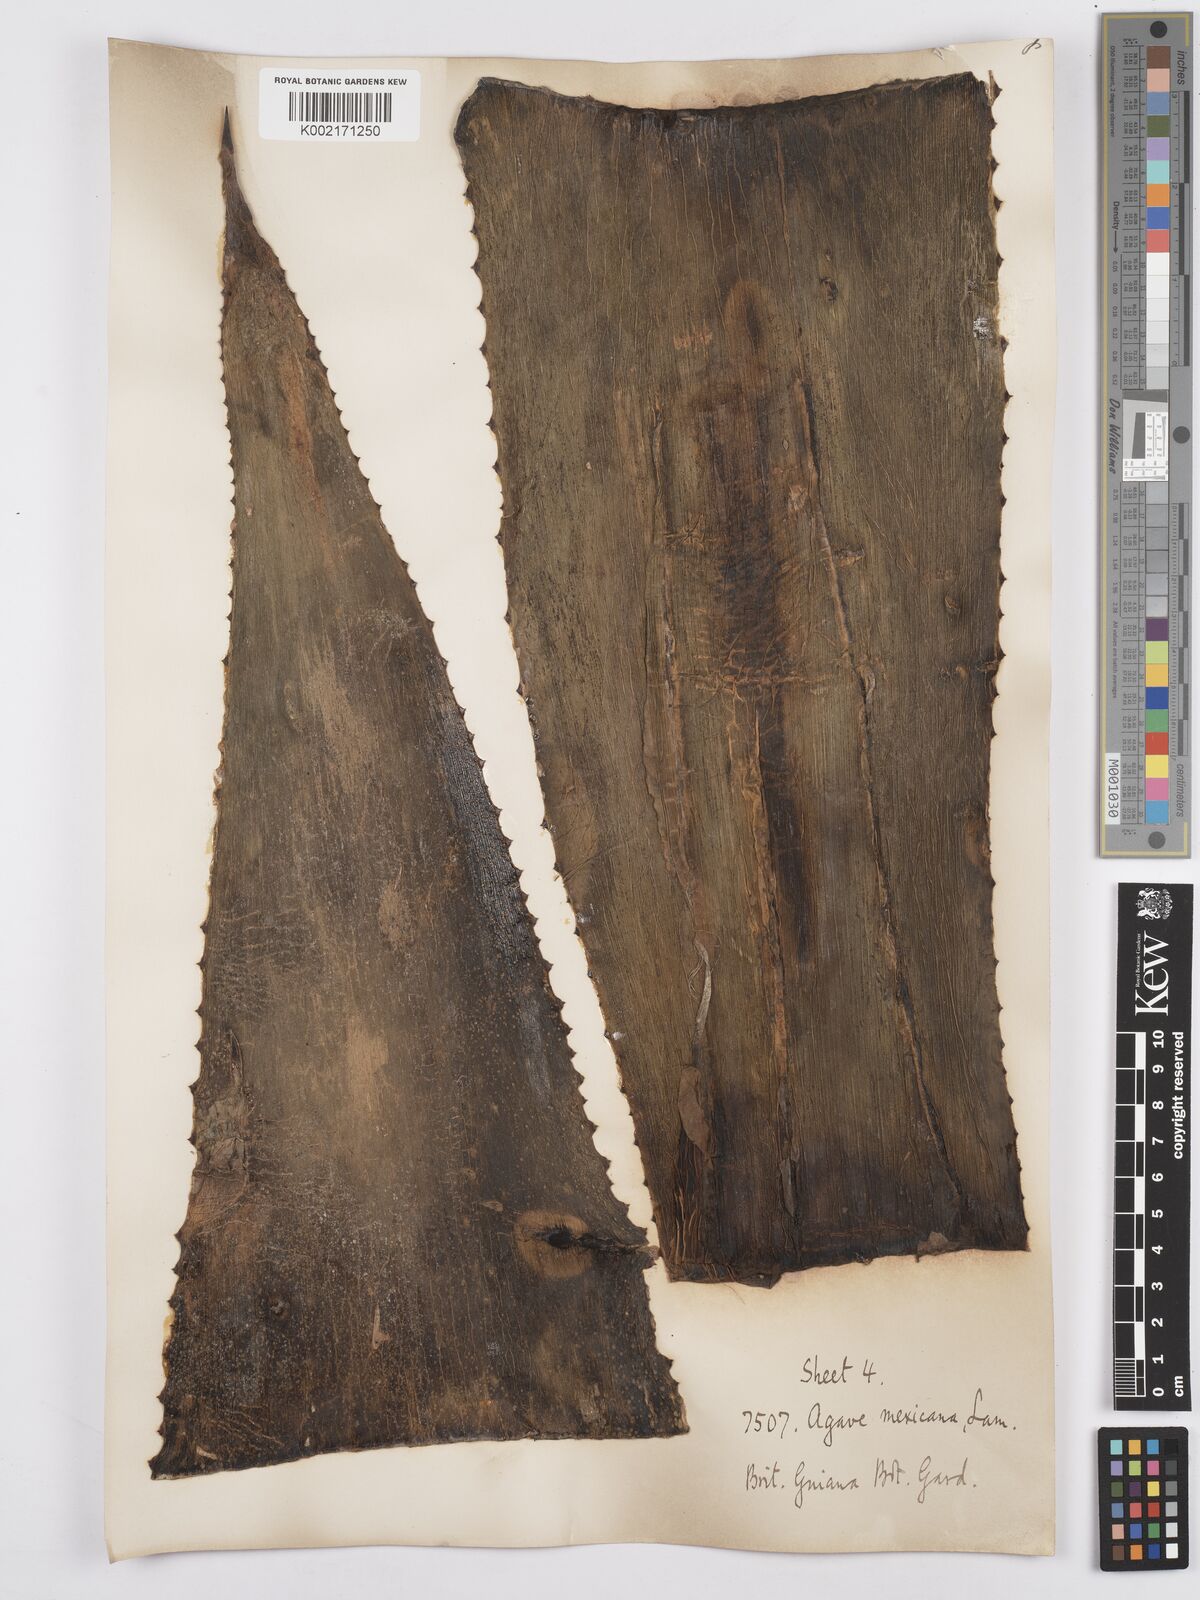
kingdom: Plantae
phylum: Tracheophyta
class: Liliopsida
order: Asparagales
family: Asparagaceae
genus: Agave
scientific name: Agave americana
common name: Centuryplant
